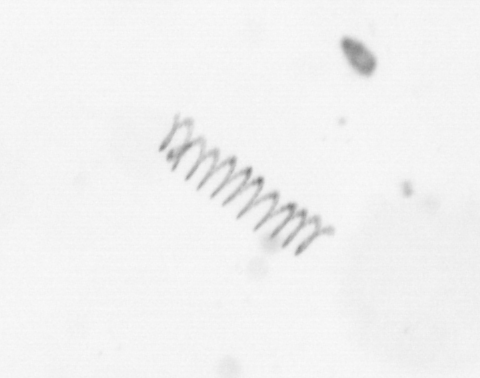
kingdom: Chromista
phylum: Ochrophyta
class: Bacillariophyceae
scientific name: Bacillariophyceae
